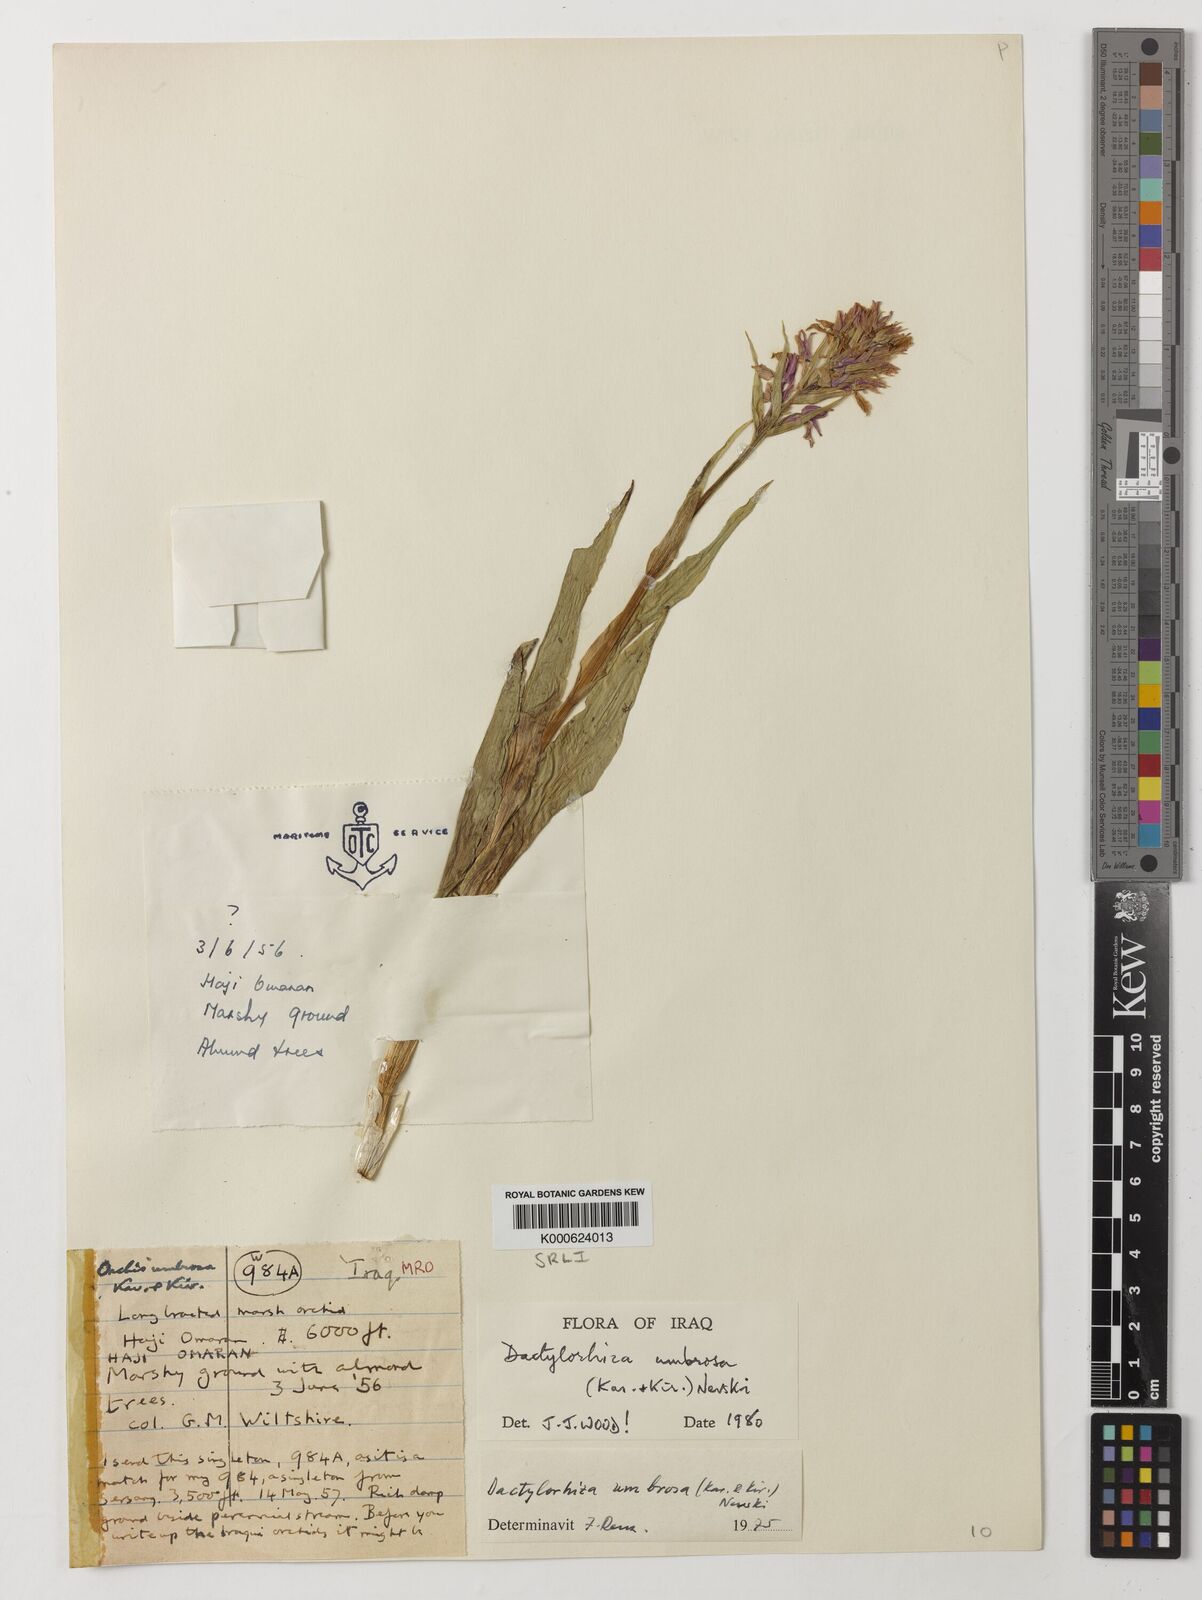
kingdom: Plantae
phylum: Tracheophyta
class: Liliopsida
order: Asparagales
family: Orchidaceae
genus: Dactylorhiza
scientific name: Dactylorhiza
